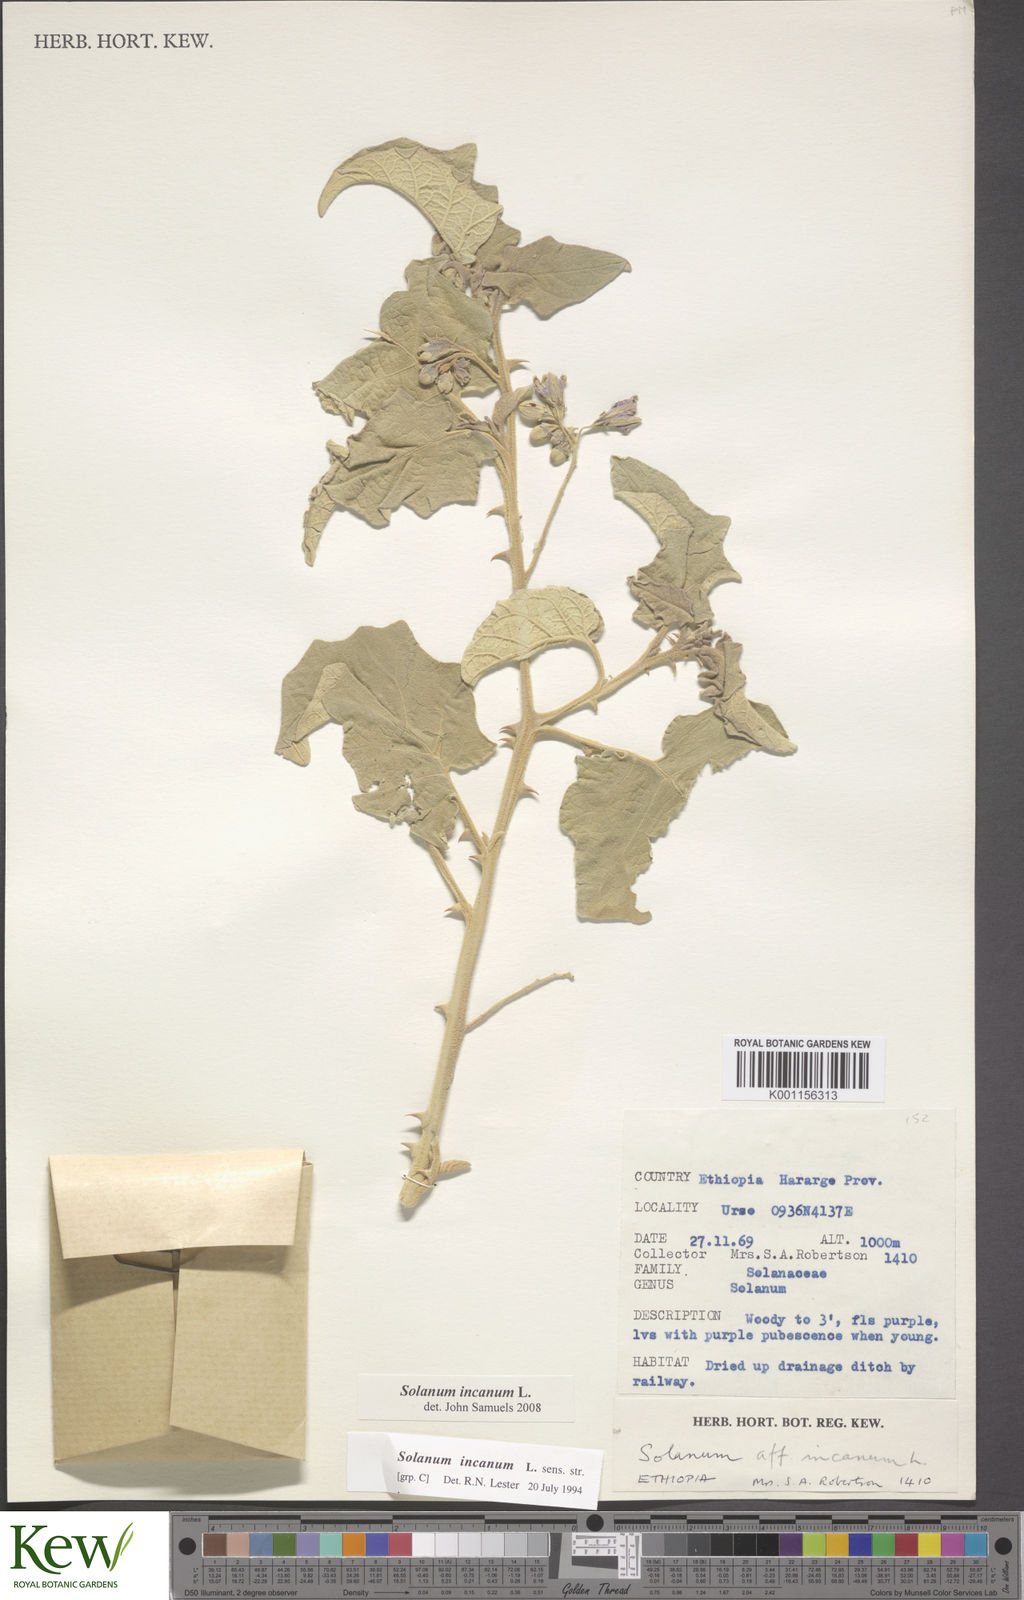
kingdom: Plantae
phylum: Tracheophyta
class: Magnoliopsida
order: Solanales
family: Solanaceae
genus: Solanum
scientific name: Solanum incanum
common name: Bitter apple
